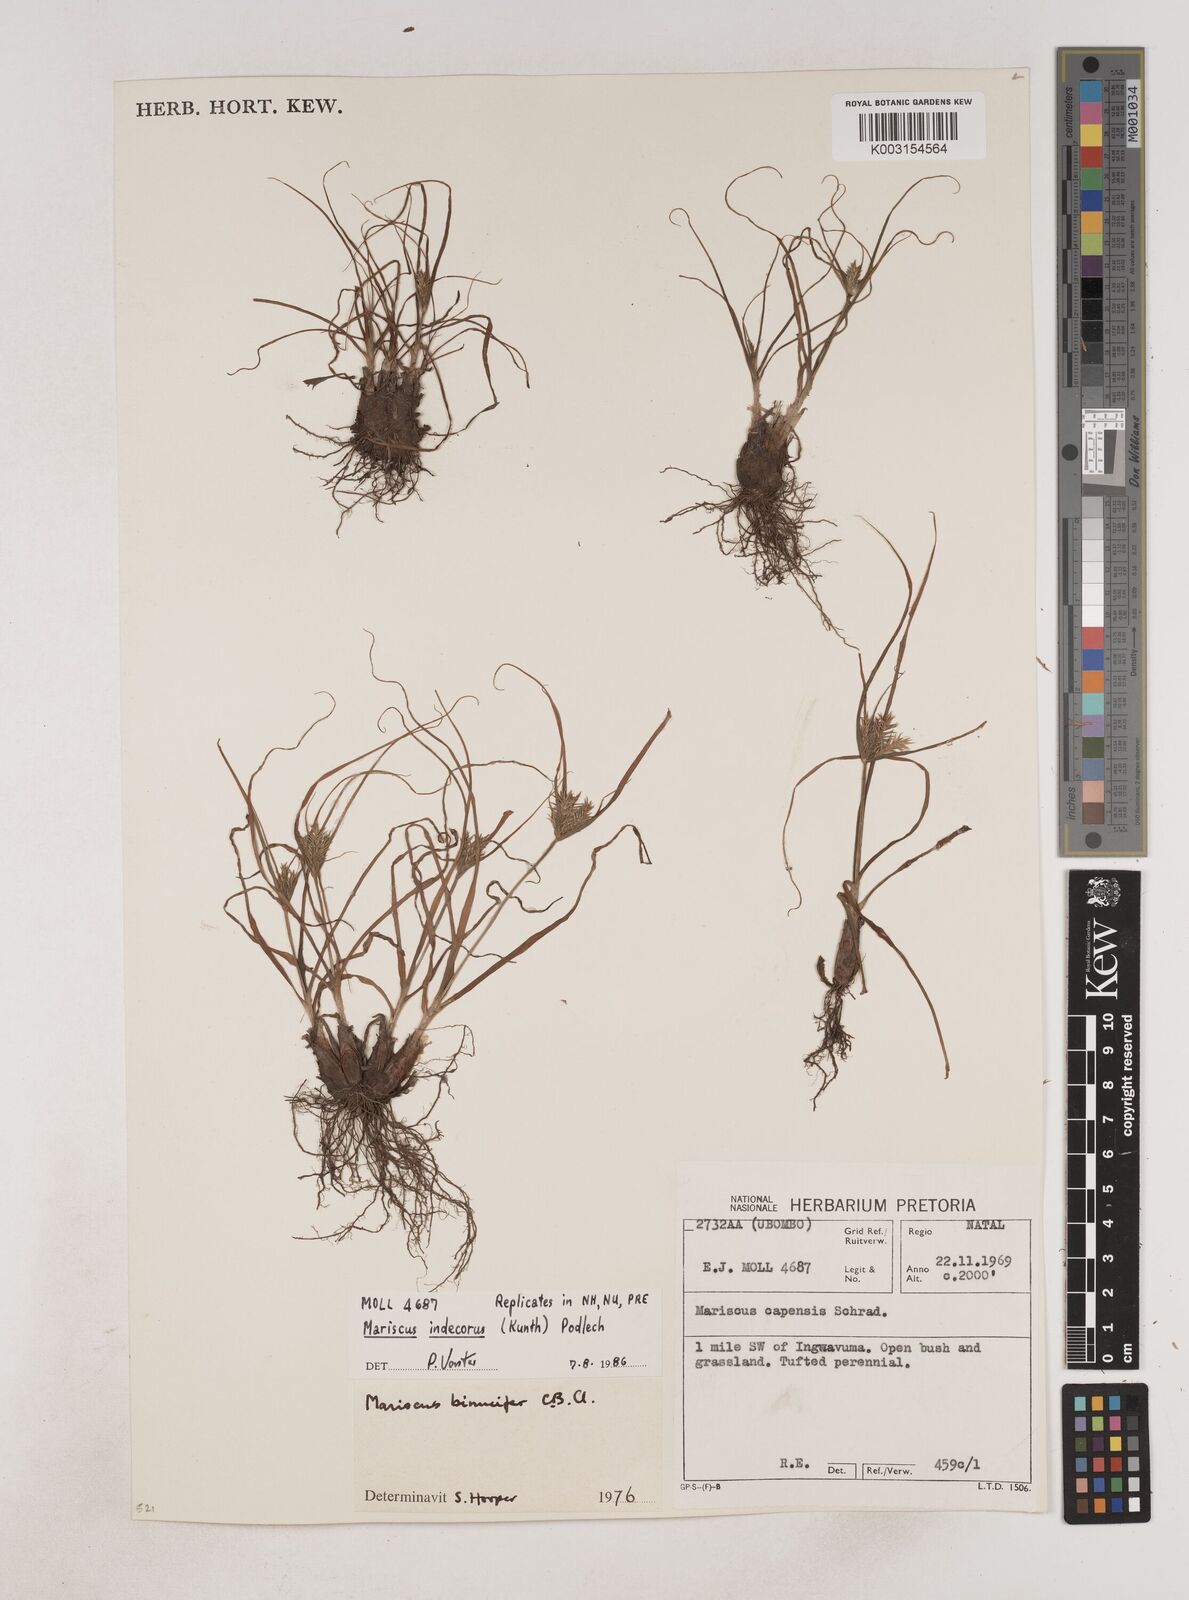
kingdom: Plantae
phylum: Tracheophyta
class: Liliopsida
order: Poales
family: Cyperaceae
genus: Cyperus
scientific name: Cyperus indecorus
